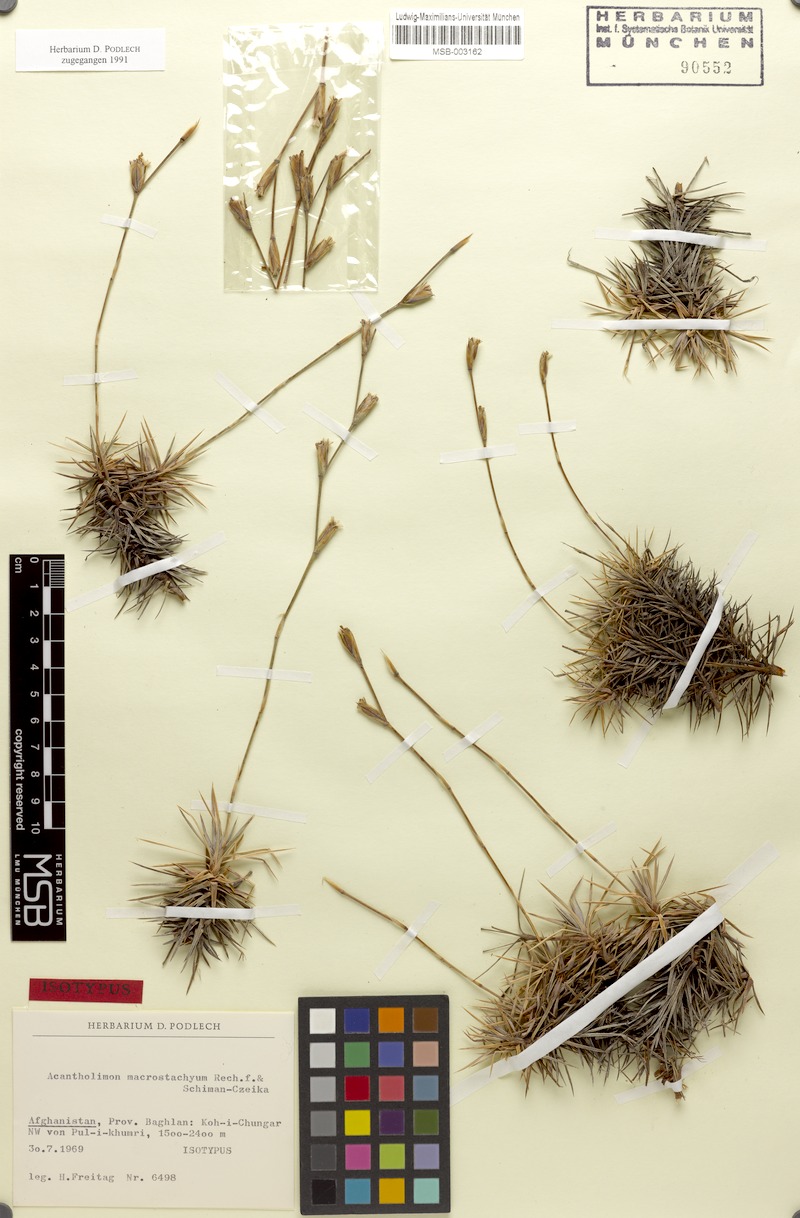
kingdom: Plantae
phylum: Tracheophyta
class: Magnoliopsida
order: Caryophyllales
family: Plumbaginaceae
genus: Acantholimon
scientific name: Acantholimon macrostachyum
